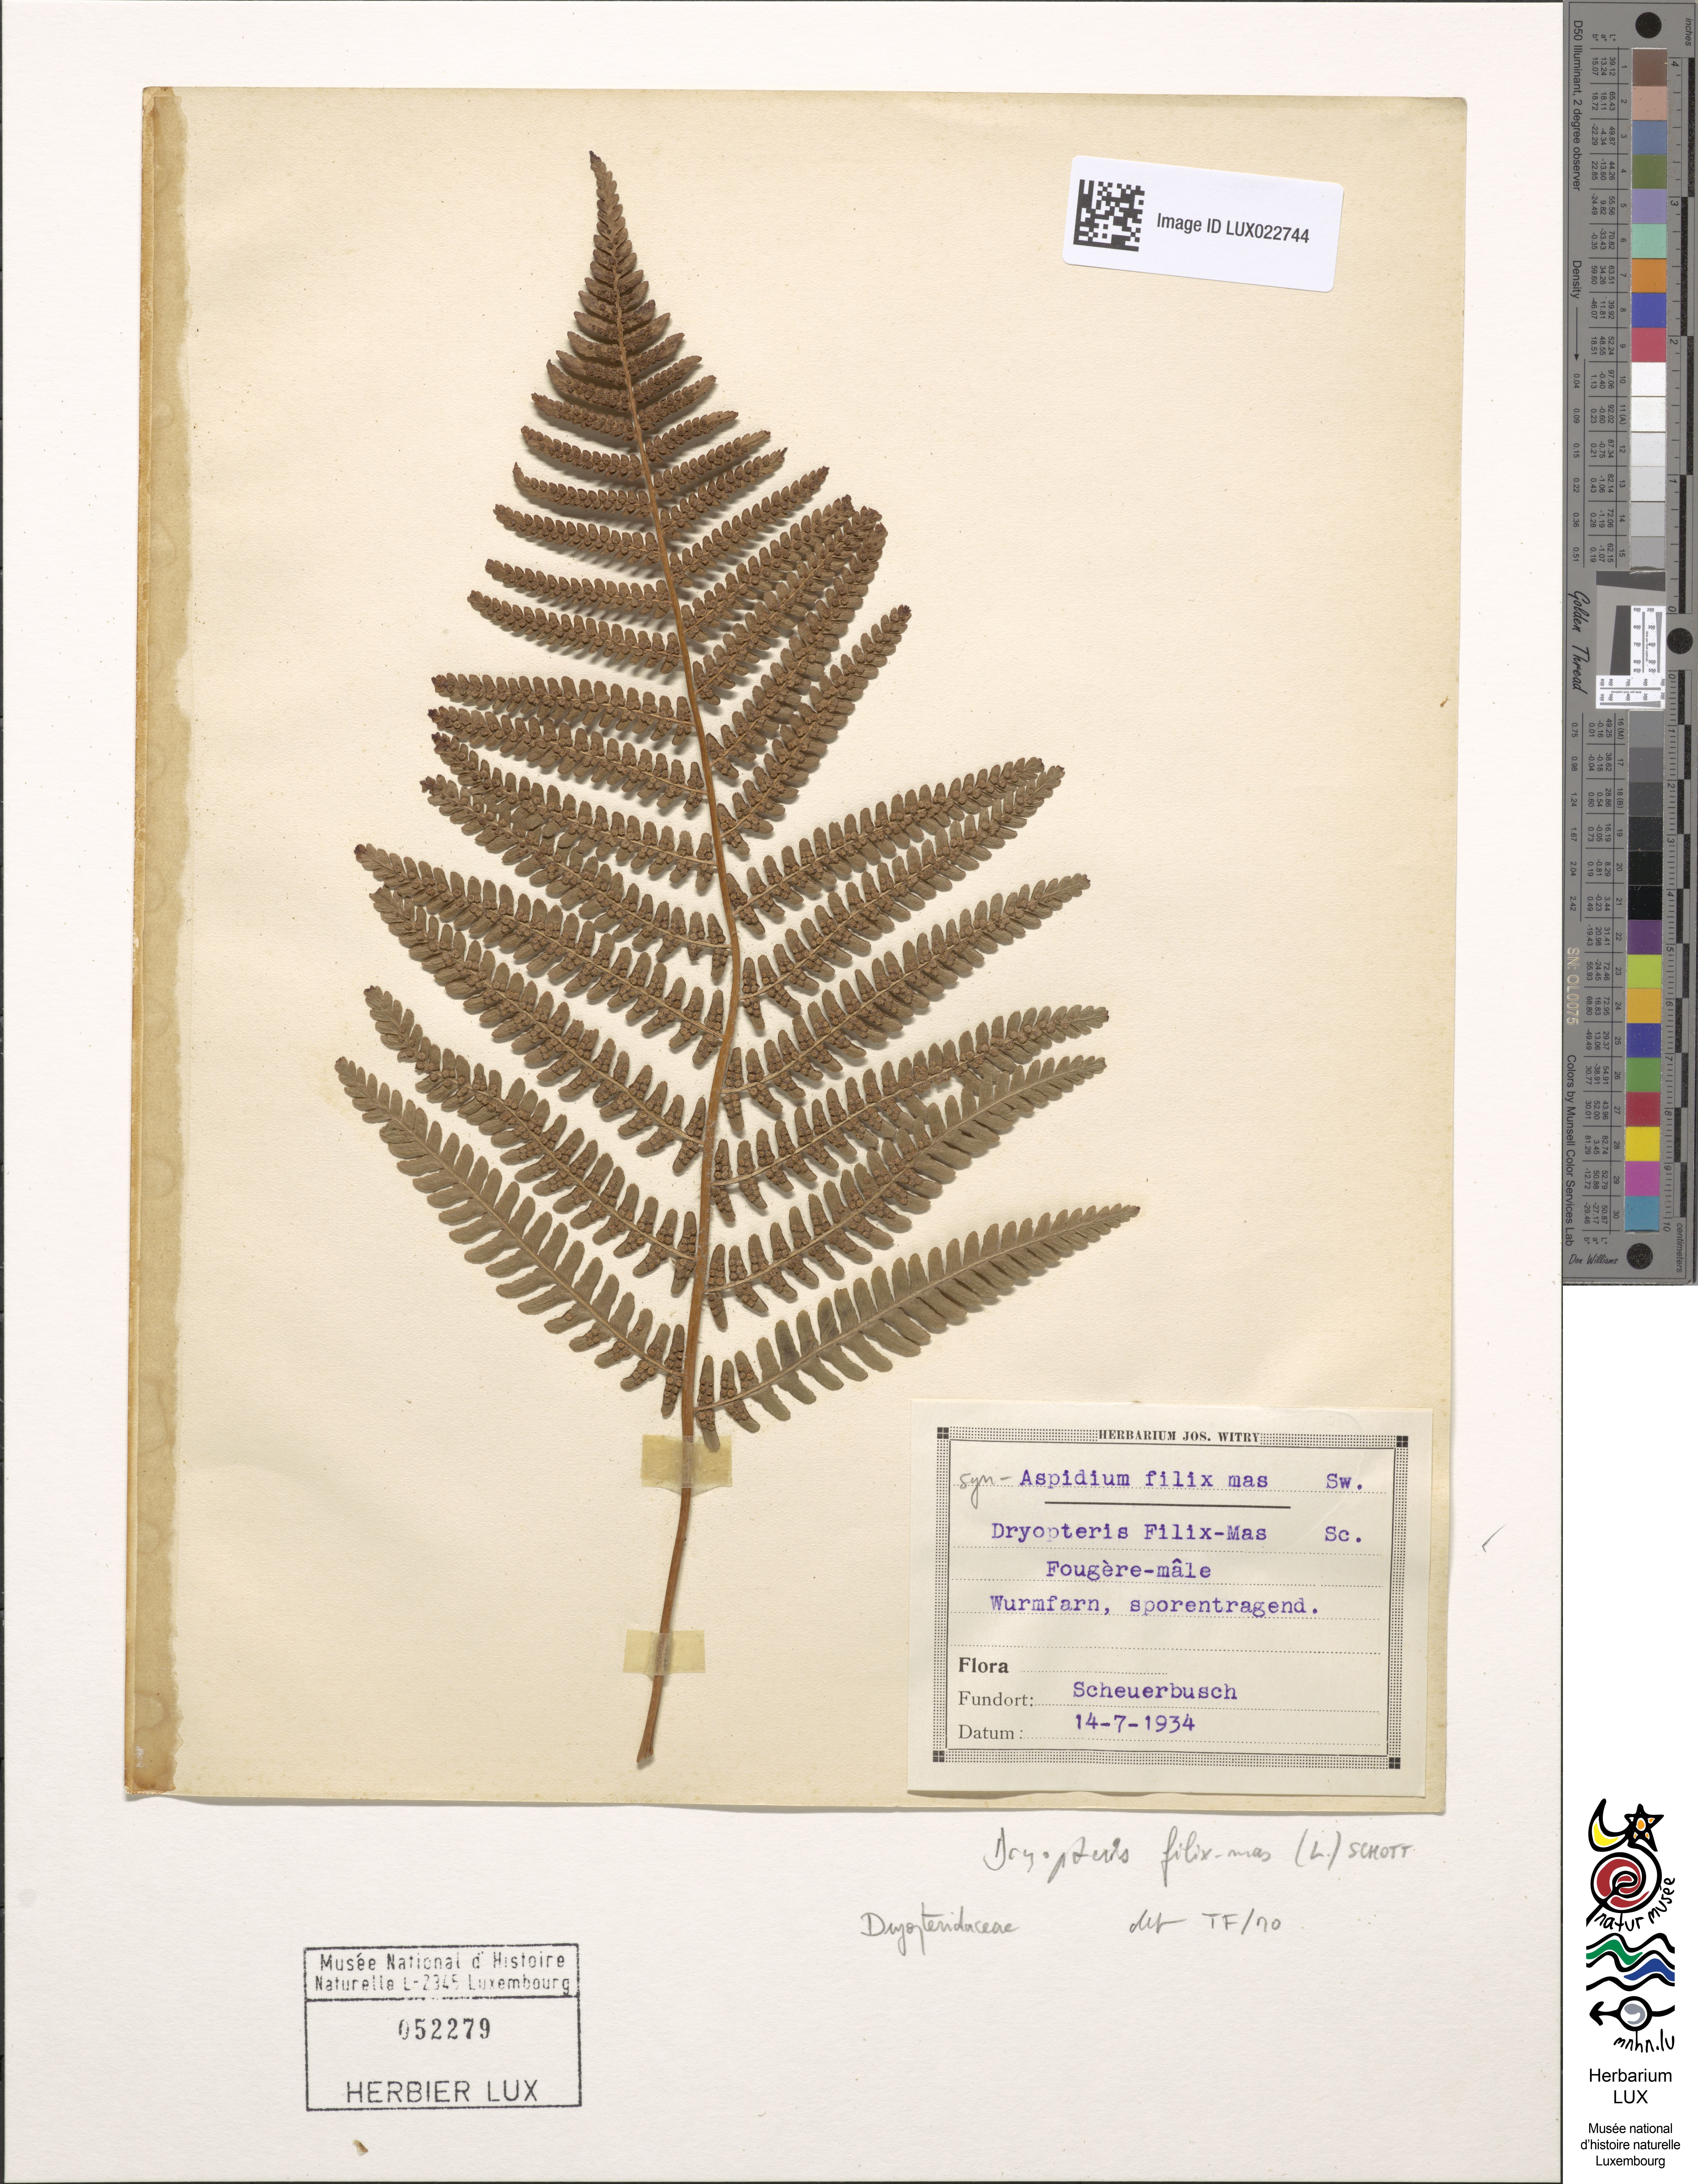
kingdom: Plantae
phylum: Tracheophyta
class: Polypodiopsida
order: Polypodiales
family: Dryopteridaceae
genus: Dryopteris
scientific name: Dryopteris filix-mas
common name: Male fern
